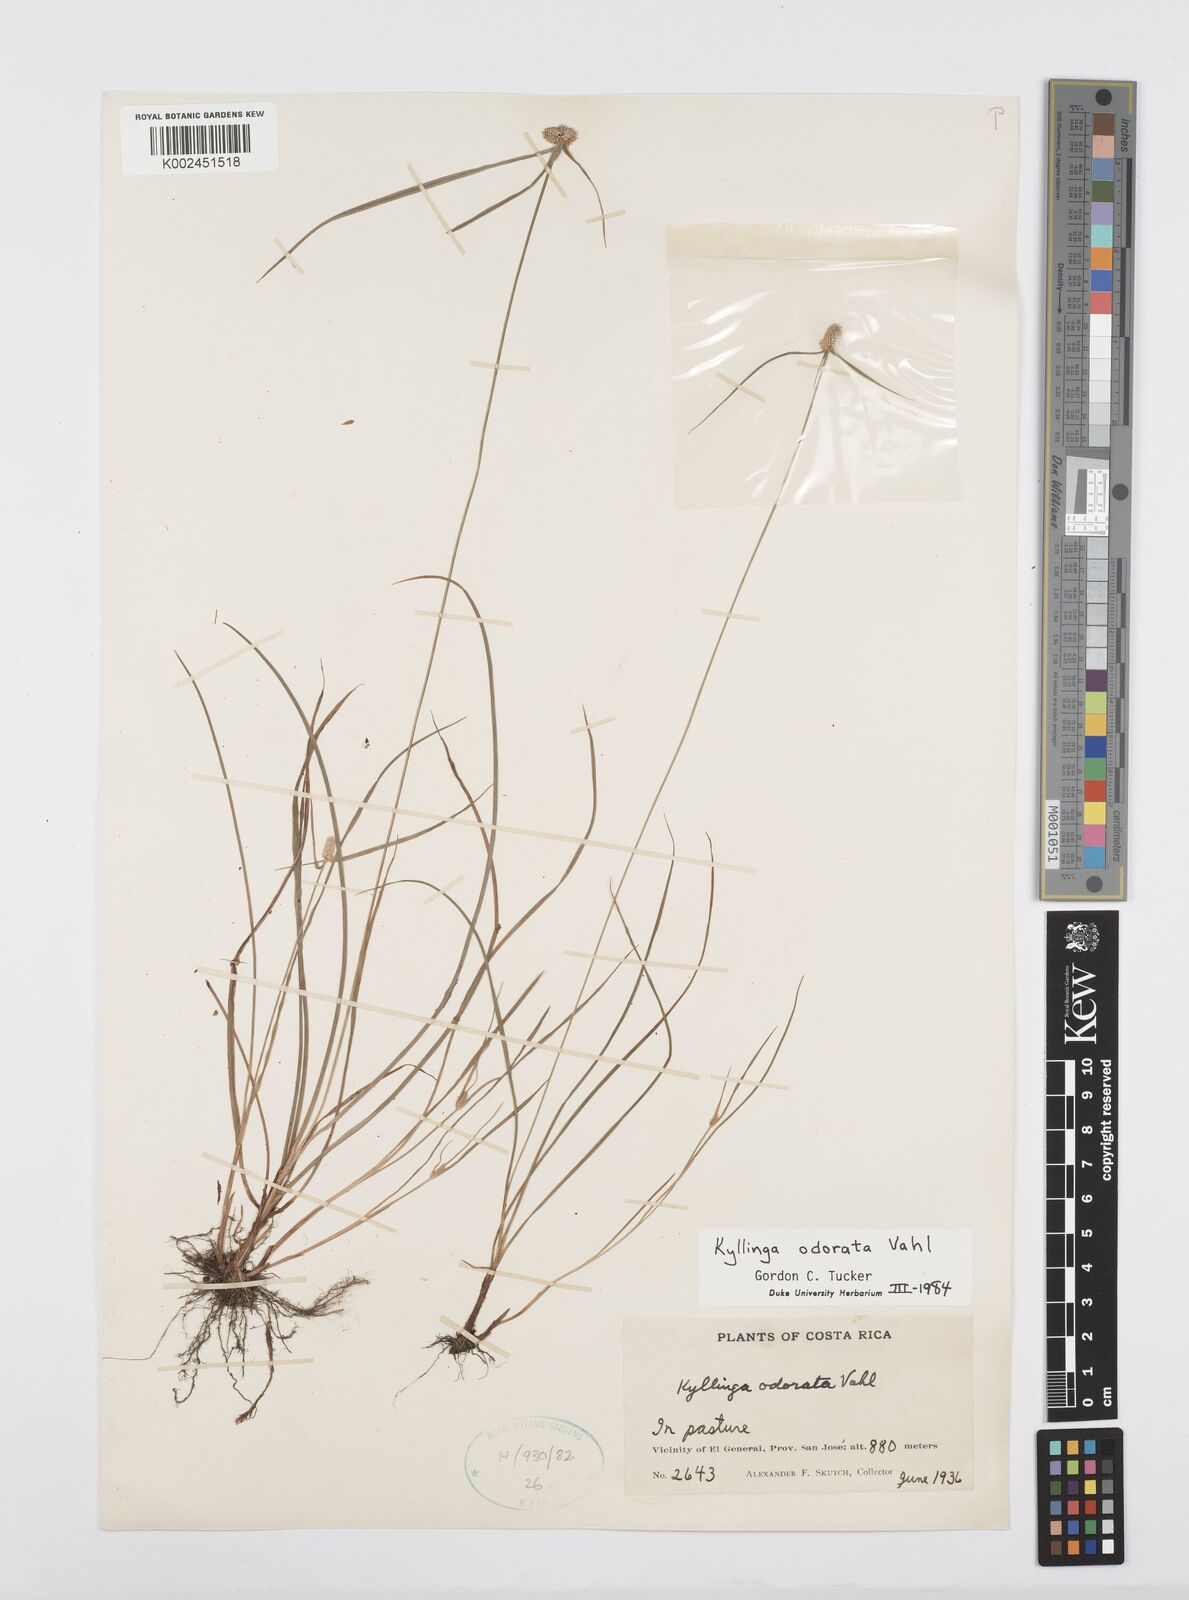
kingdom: Plantae
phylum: Tracheophyta
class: Liliopsida
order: Poales
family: Cyperaceae
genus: Cyperus
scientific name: Cyperus sesquiflorus
